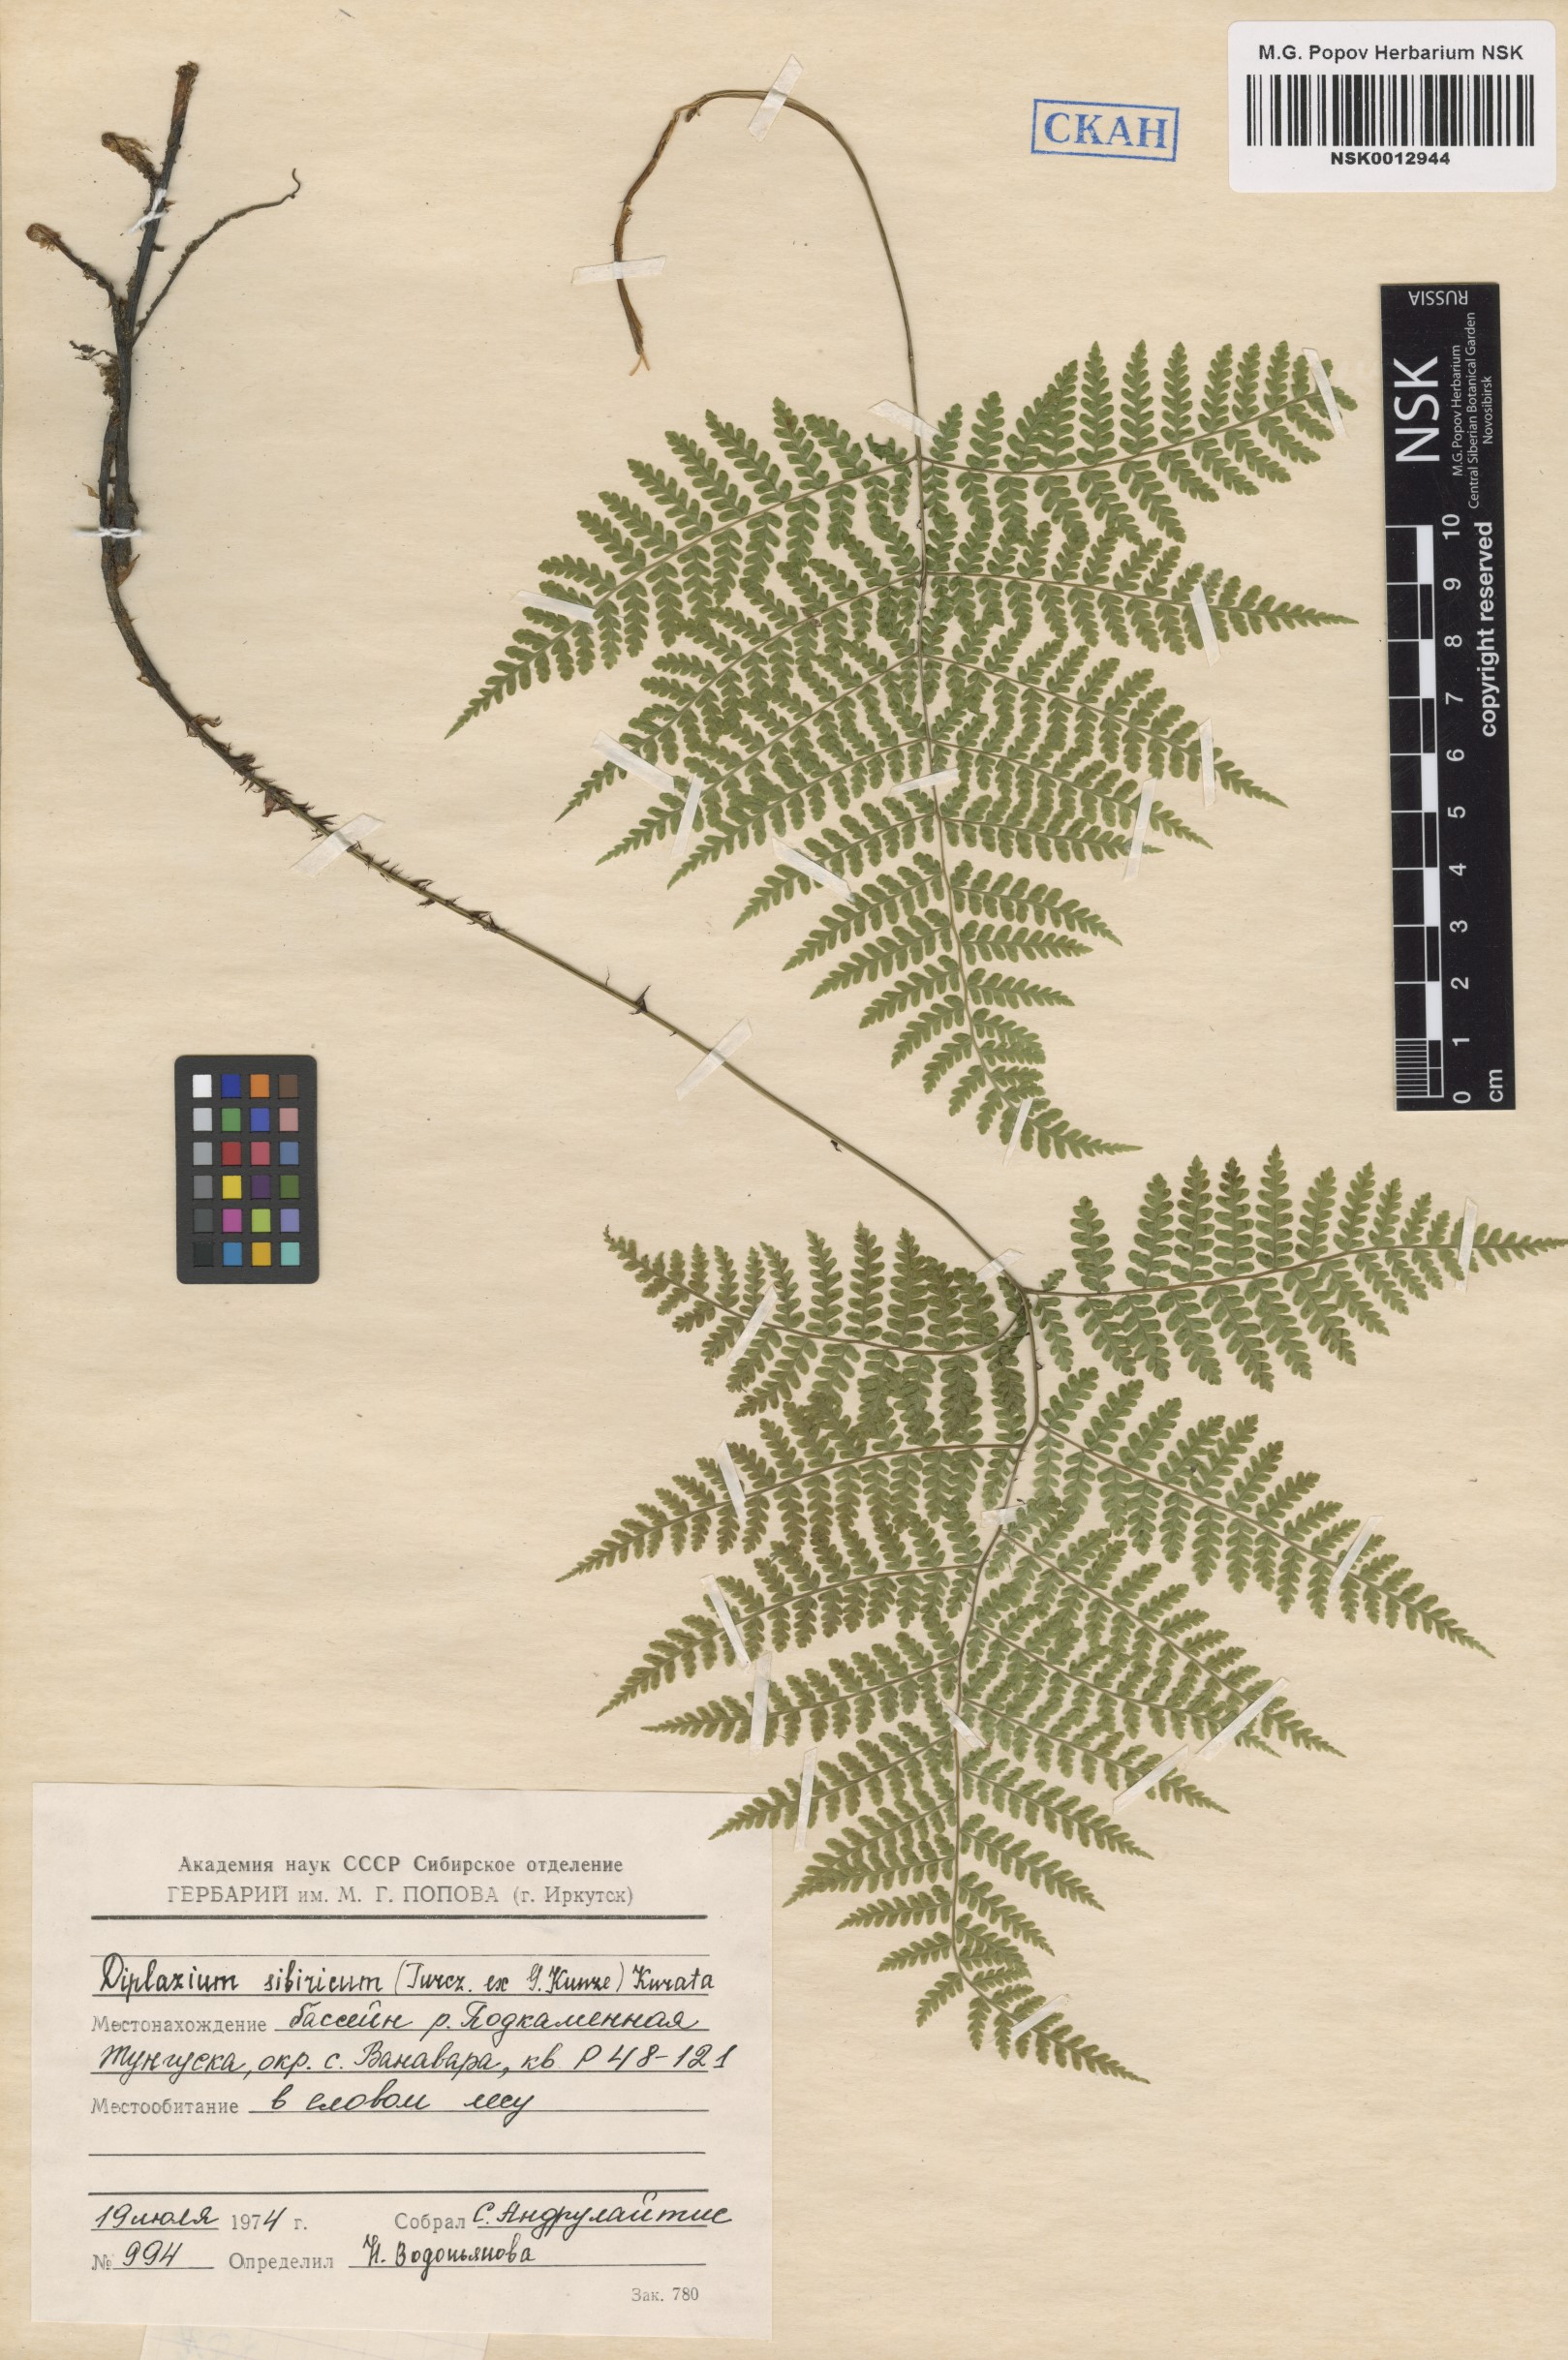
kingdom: Plantae
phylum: Tracheophyta
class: Polypodiopsida
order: Polypodiales
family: Athyriaceae
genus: Diplazium
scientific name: Diplazium sibiricum
